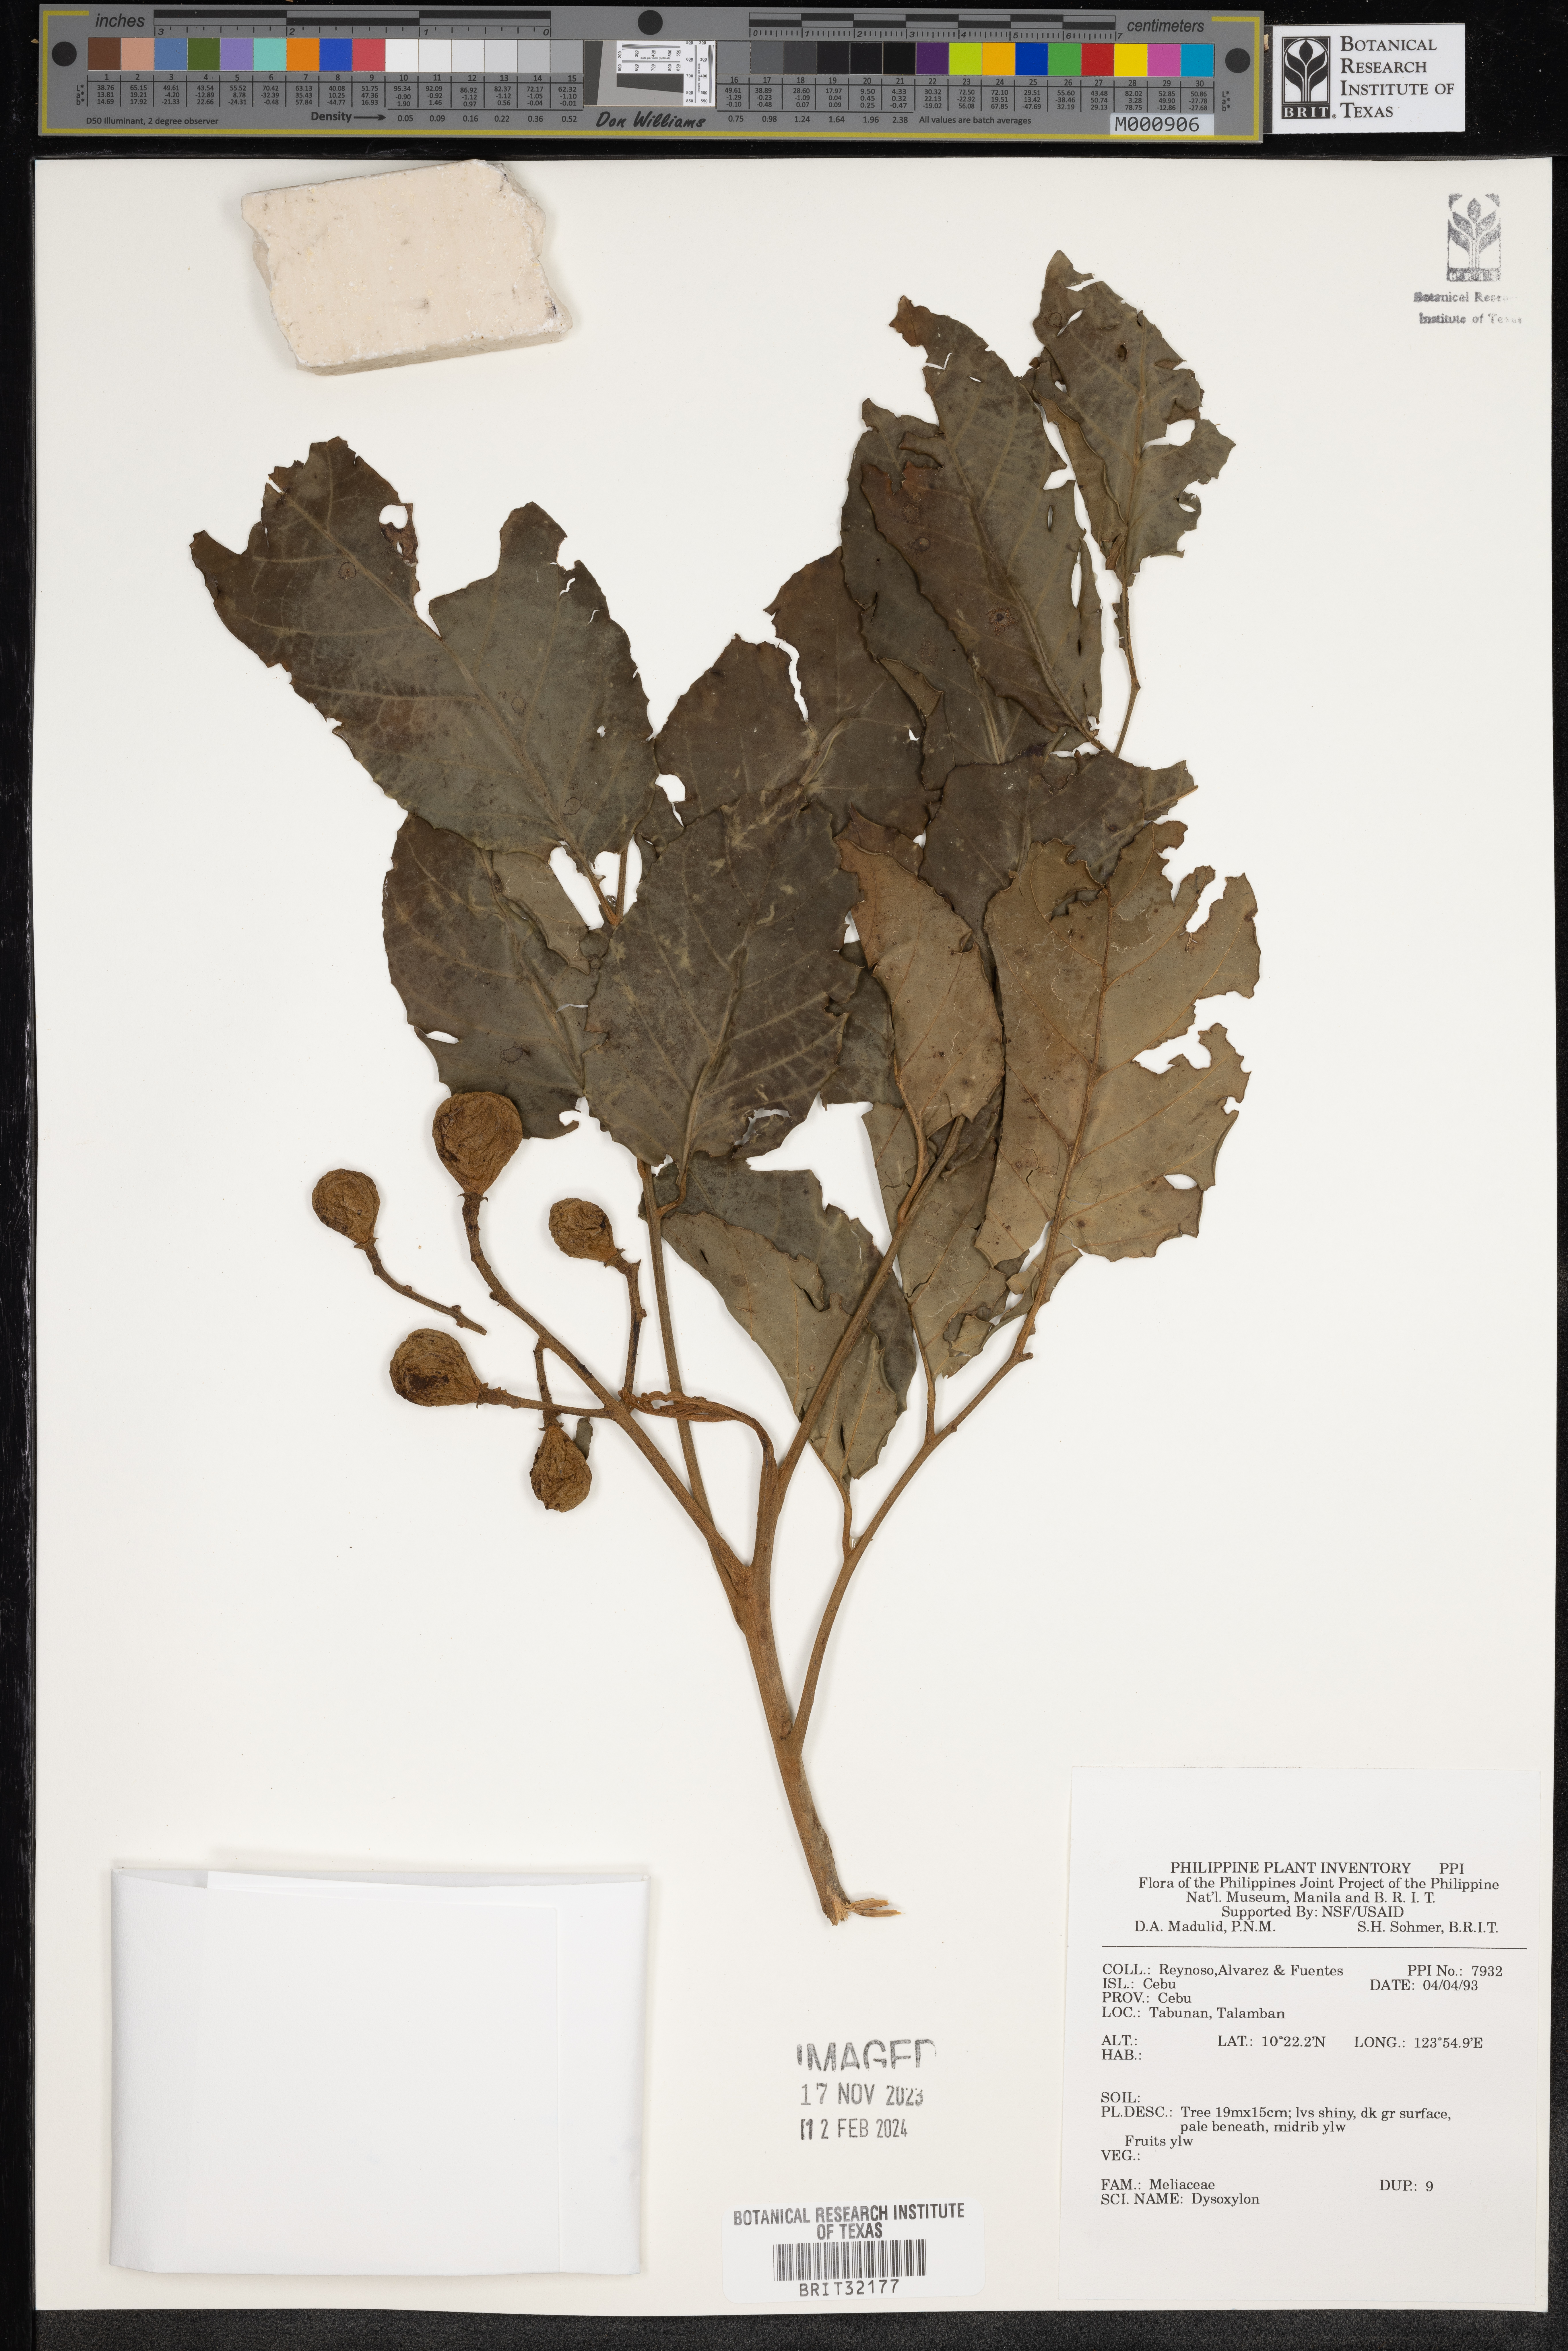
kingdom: Plantae
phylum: Tracheophyta
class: Magnoliopsida
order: Sapindales
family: Meliaceae
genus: Dysoxylum
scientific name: Dysoxylum
